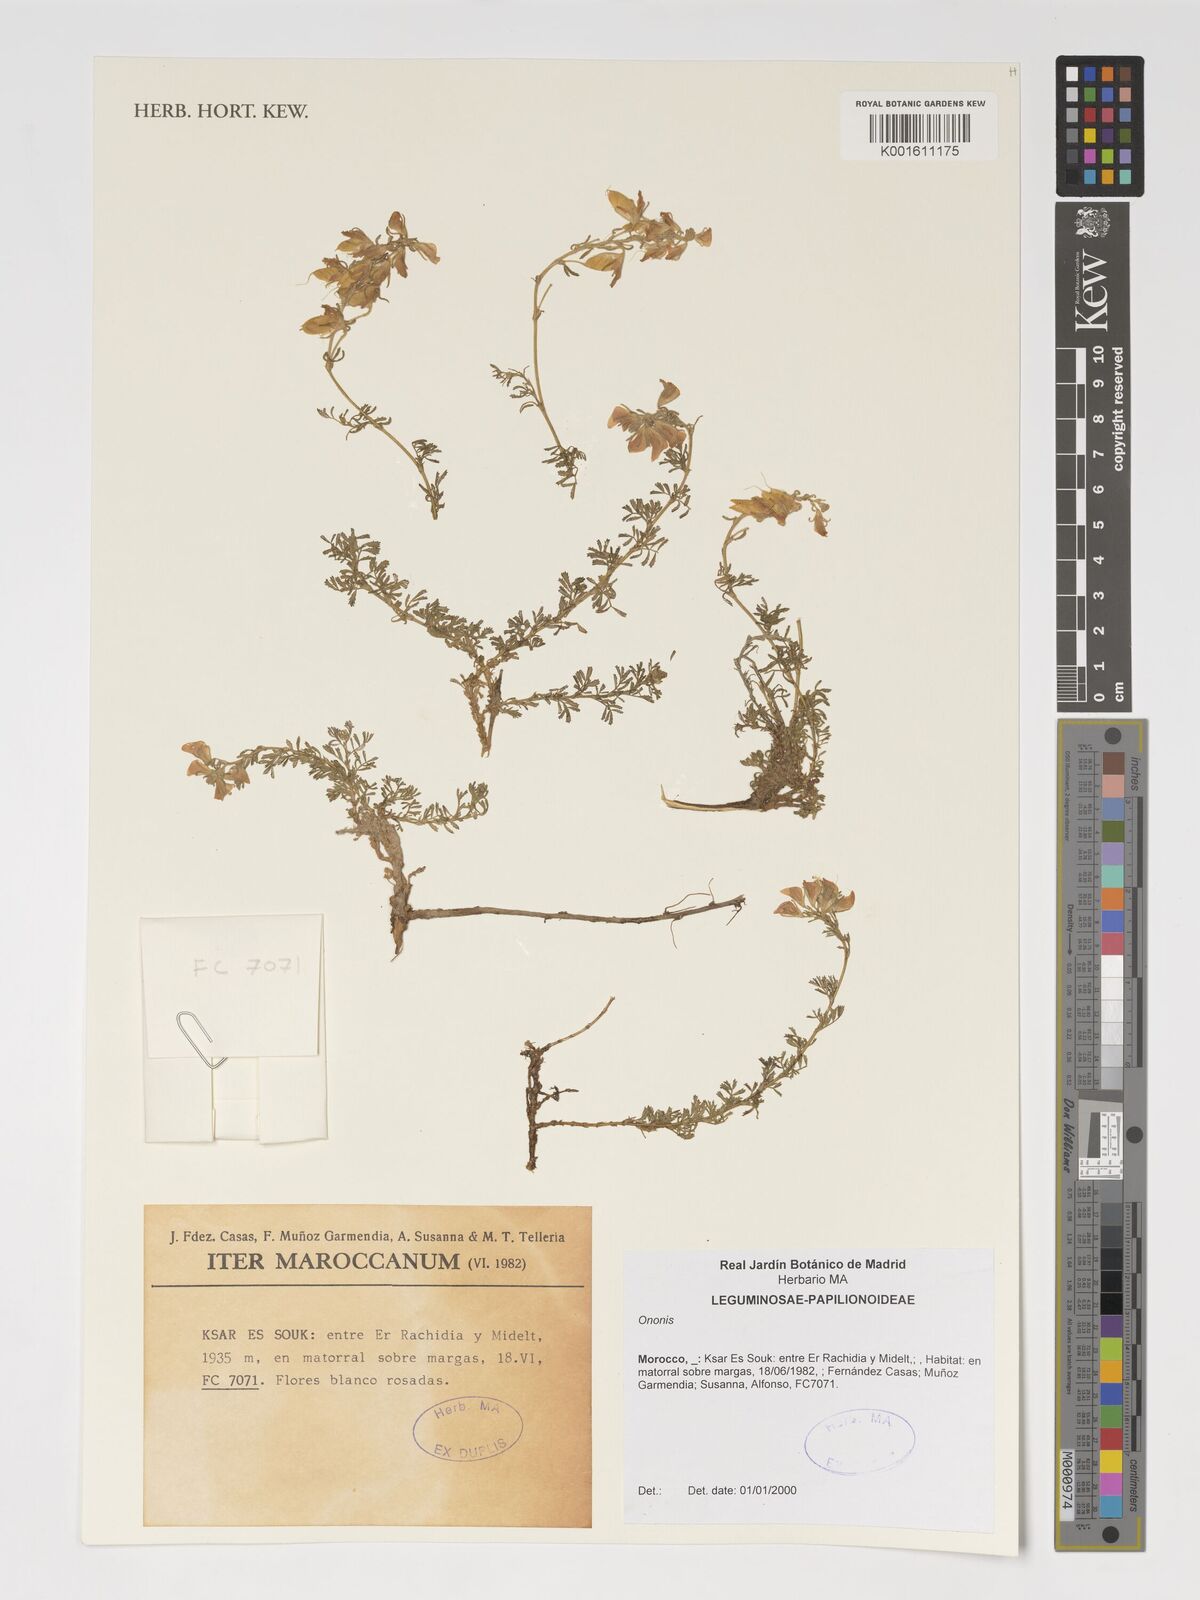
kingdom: Plantae
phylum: Tracheophyta
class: Magnoliopsida
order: Fabales
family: Fabaceae
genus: Ononis
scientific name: Ononis
